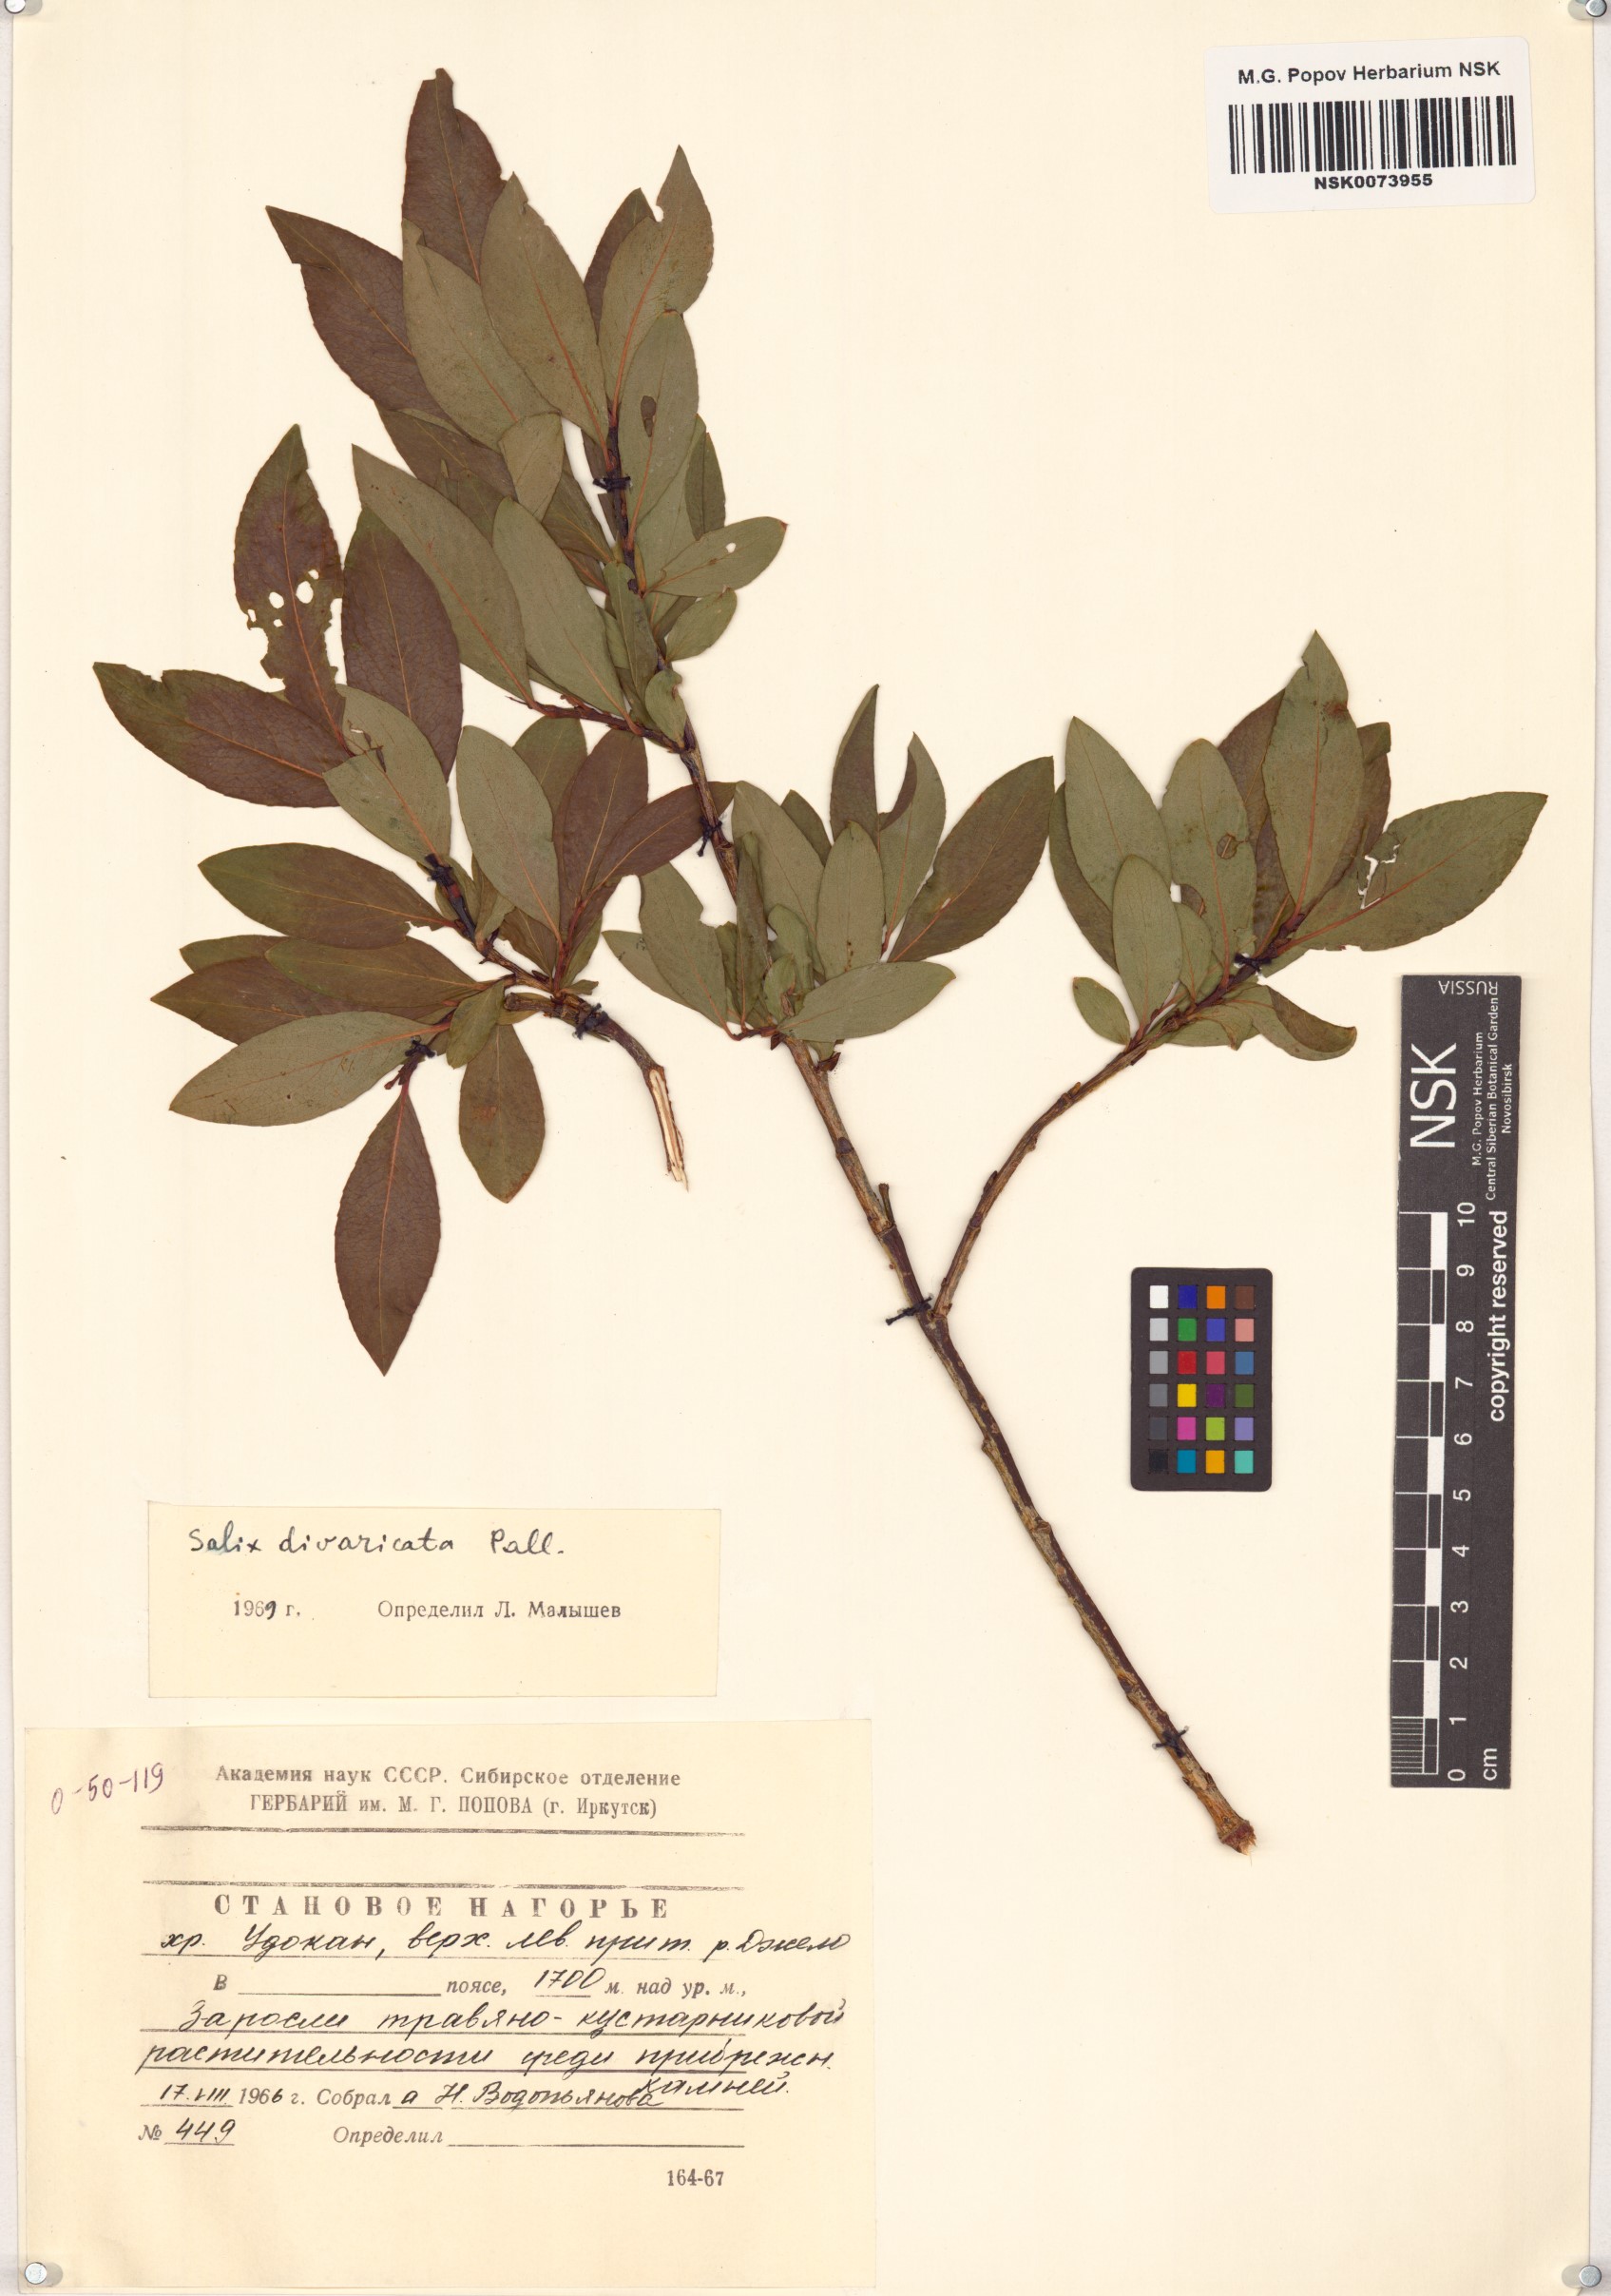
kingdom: Plantae
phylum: Tracheophyta
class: Magnoliopsida
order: Malpighiales
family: Salicaceae
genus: Salix
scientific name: Salix divaricata
